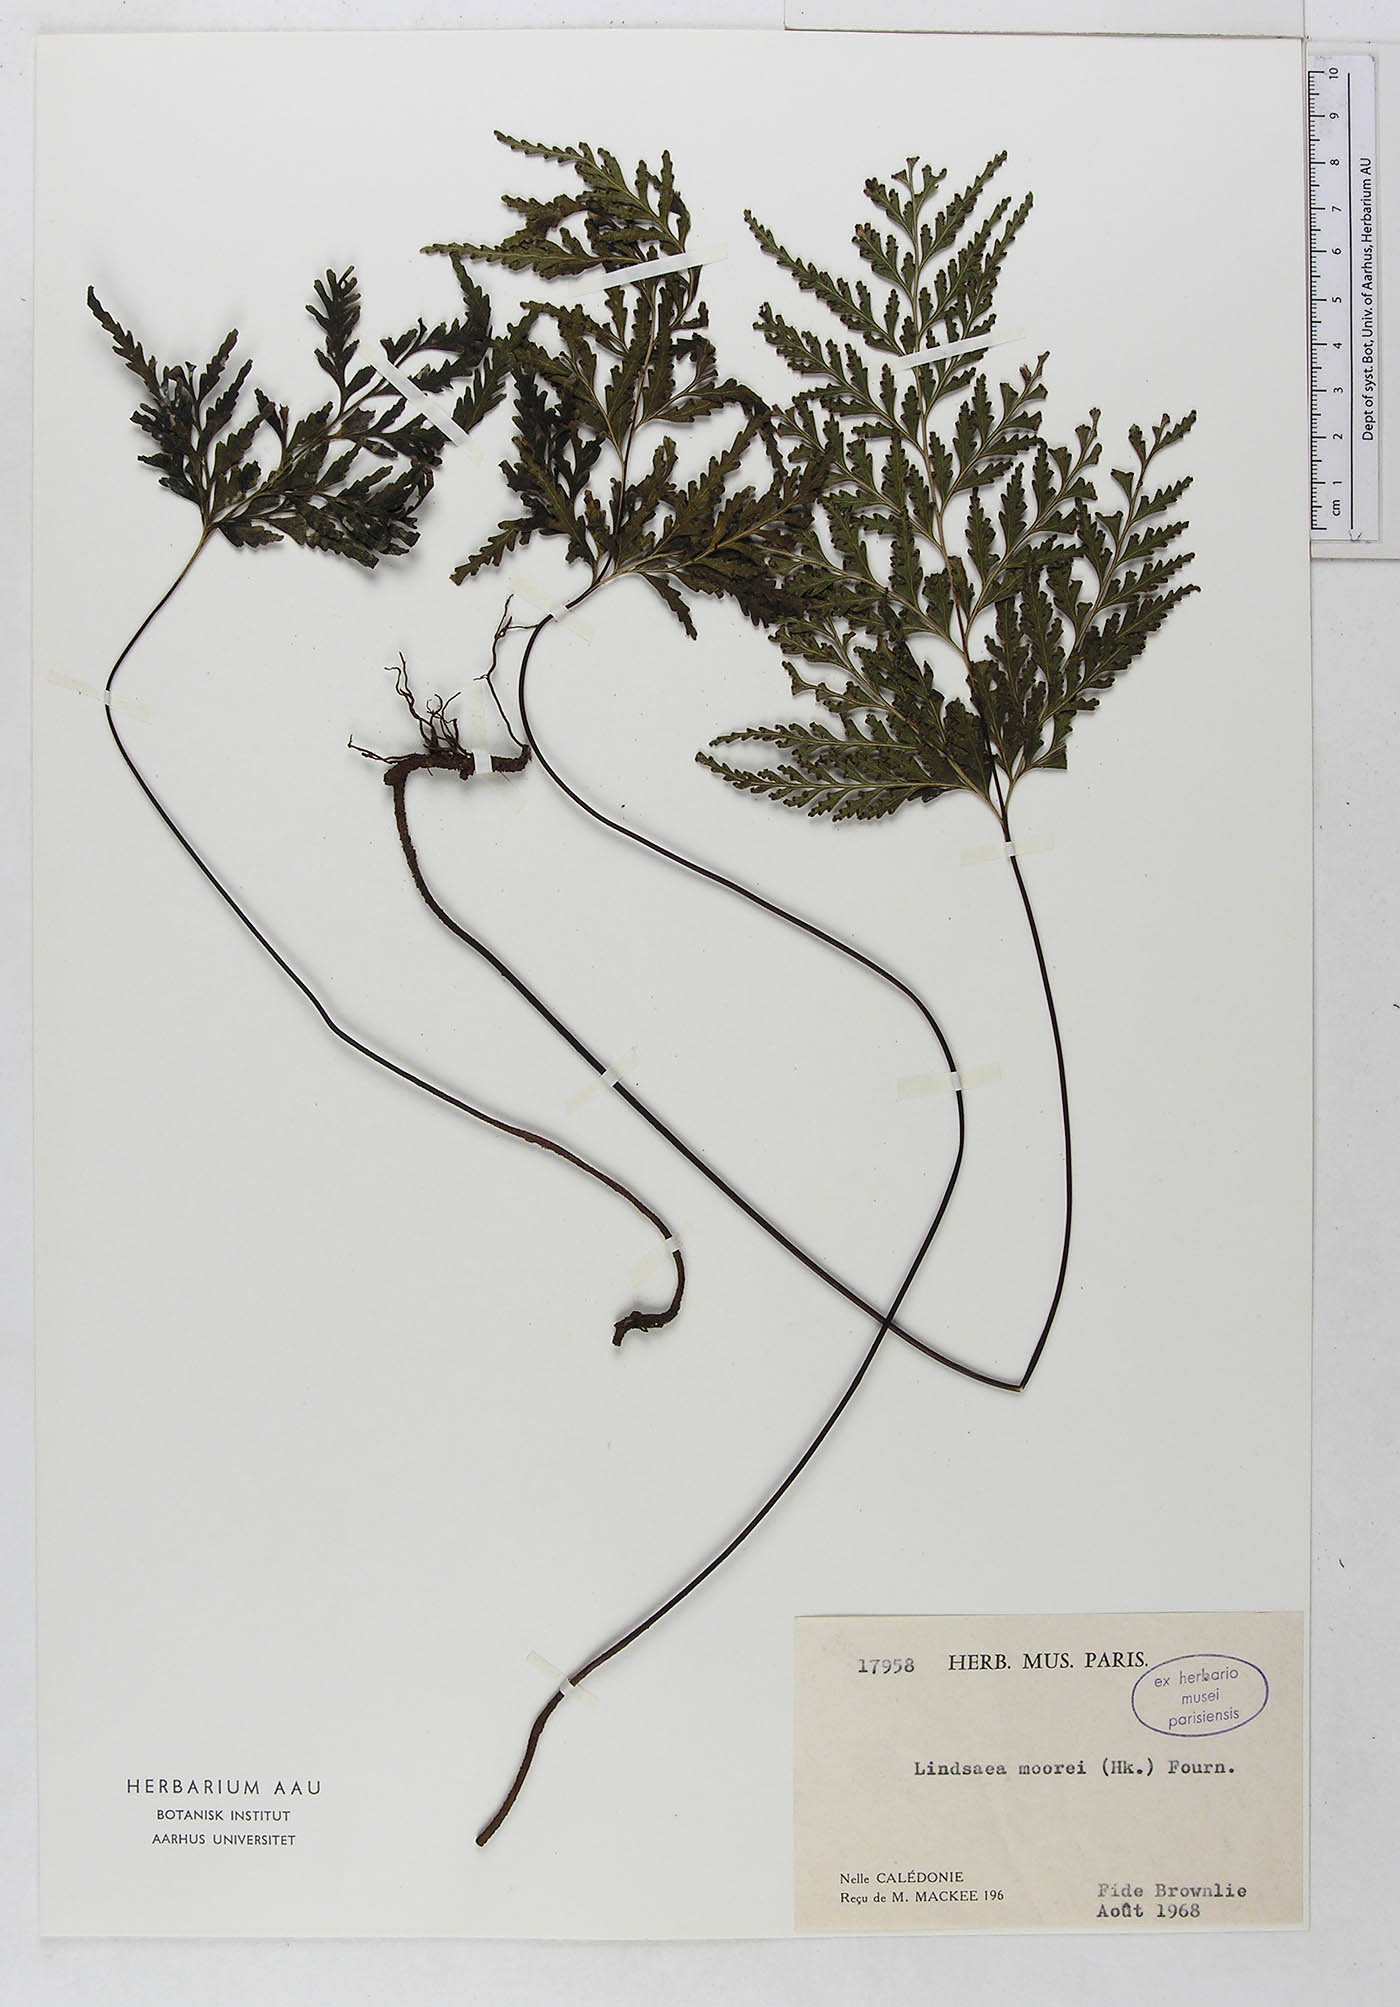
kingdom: Plantae
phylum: Tracheophyta
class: Polypodiopsida
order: Polypodiales
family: Dennstaedtiaceae
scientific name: Dennstaedtiaceae
